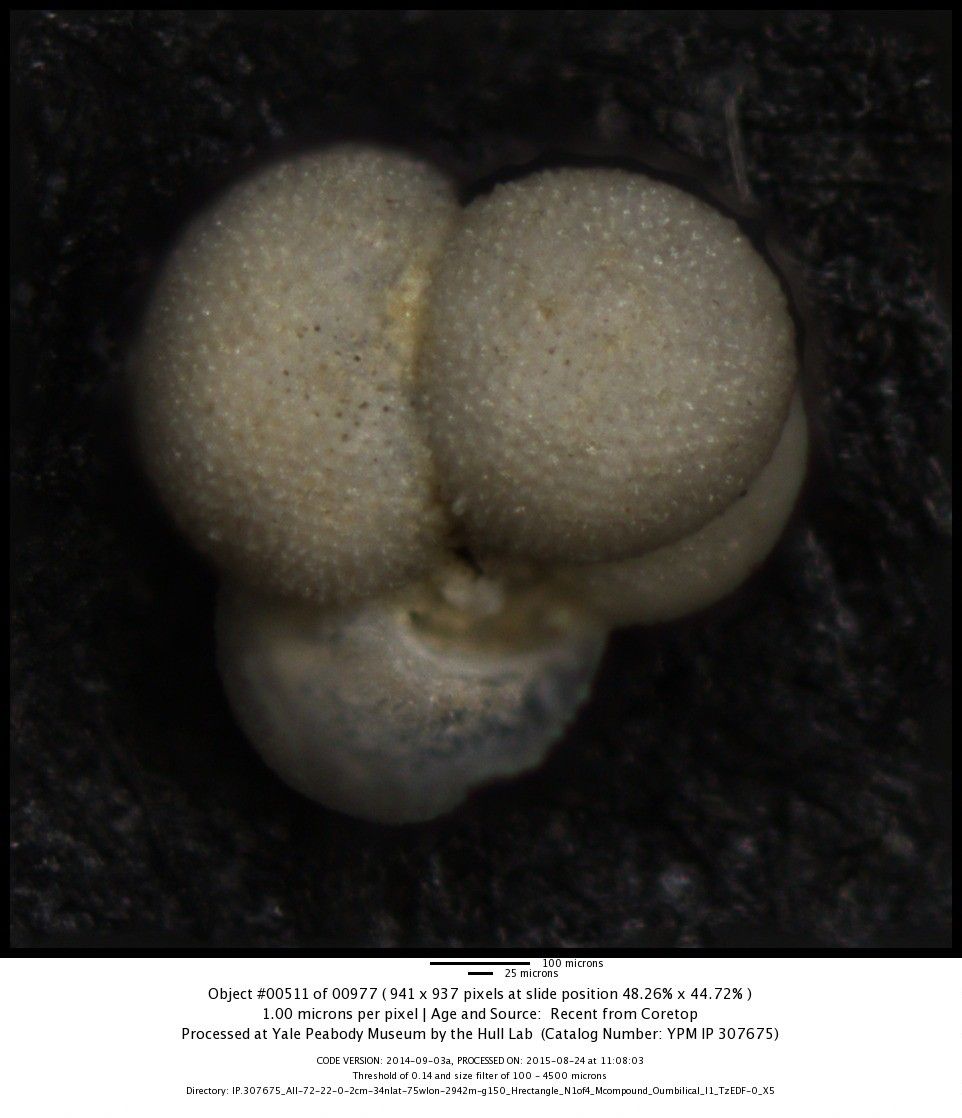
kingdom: Chromista
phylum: Foraminifera
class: Globothalamea
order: Rotaliida
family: Globigerinidae
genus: Globigerinoides
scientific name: Globigerinoides sacculifer
